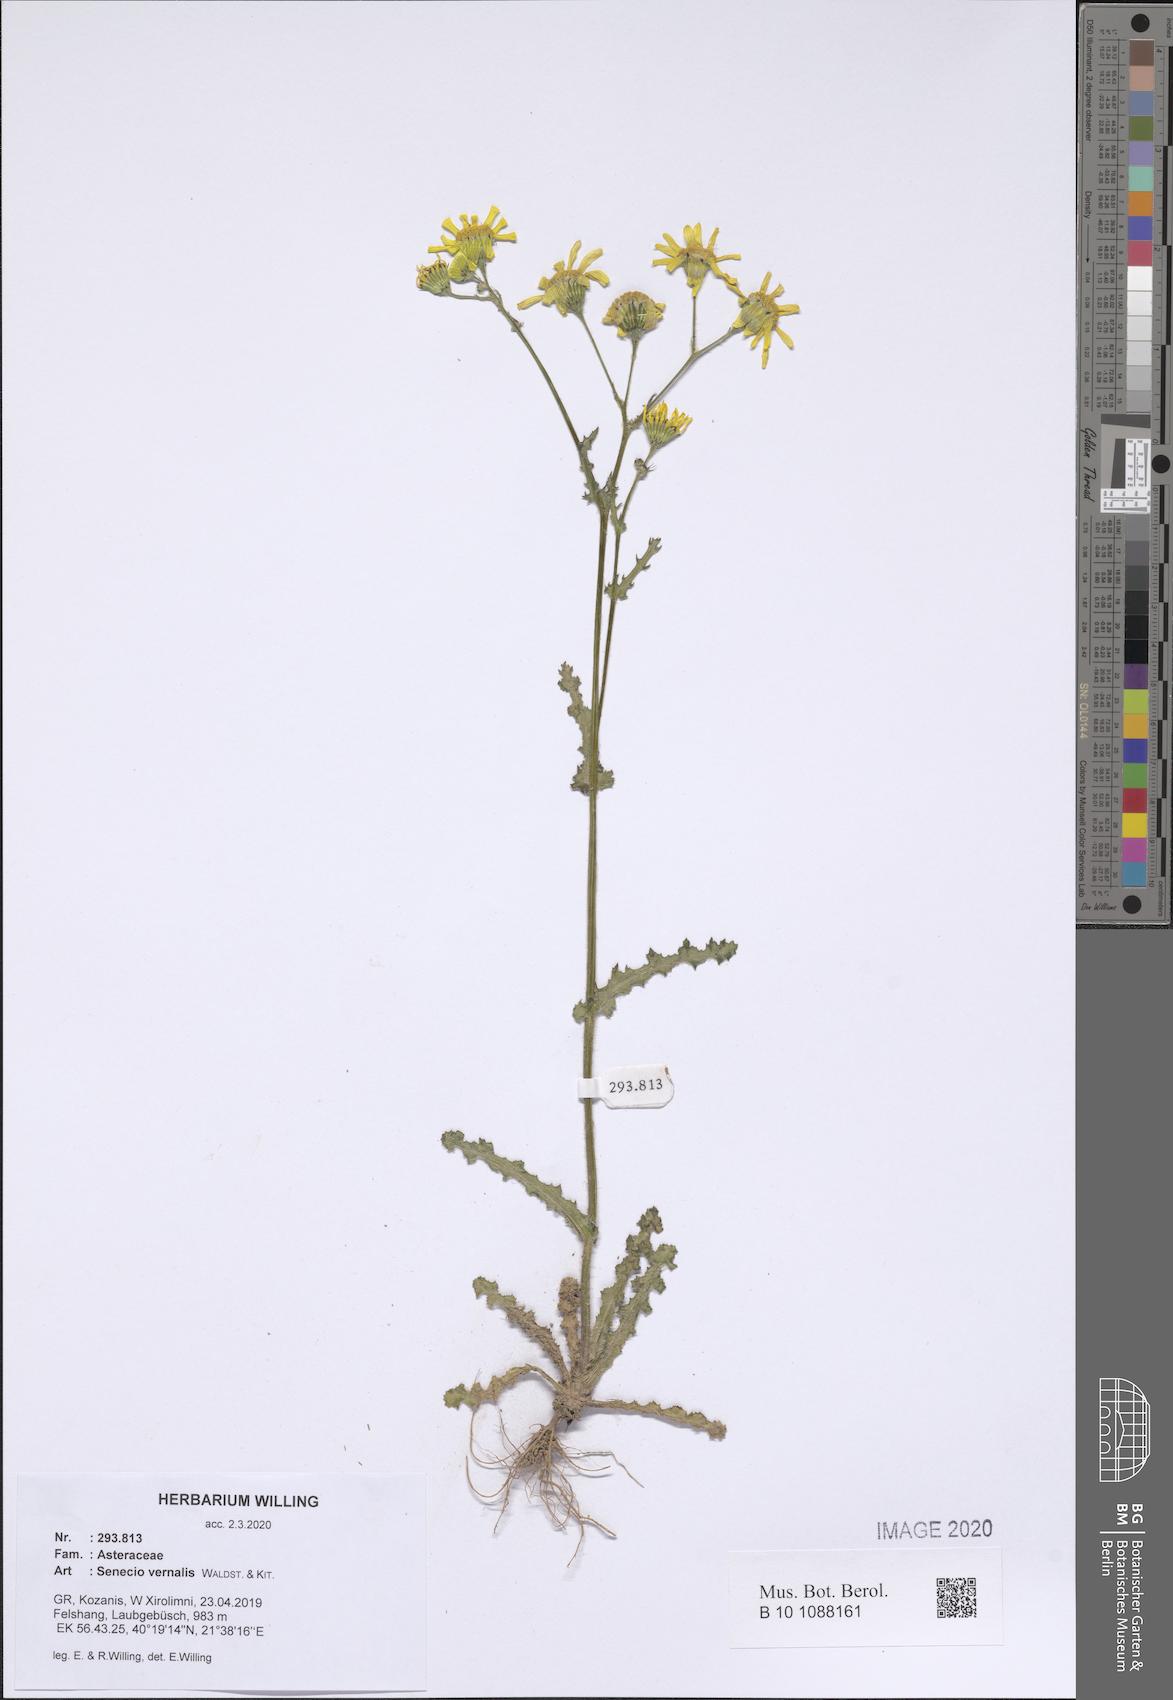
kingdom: Plantae
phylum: Tracheophyta
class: Magnoliopsida
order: Asterales
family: Asteraceae
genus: Senecio
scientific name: Senecio vernalis
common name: Eastern groundsel
